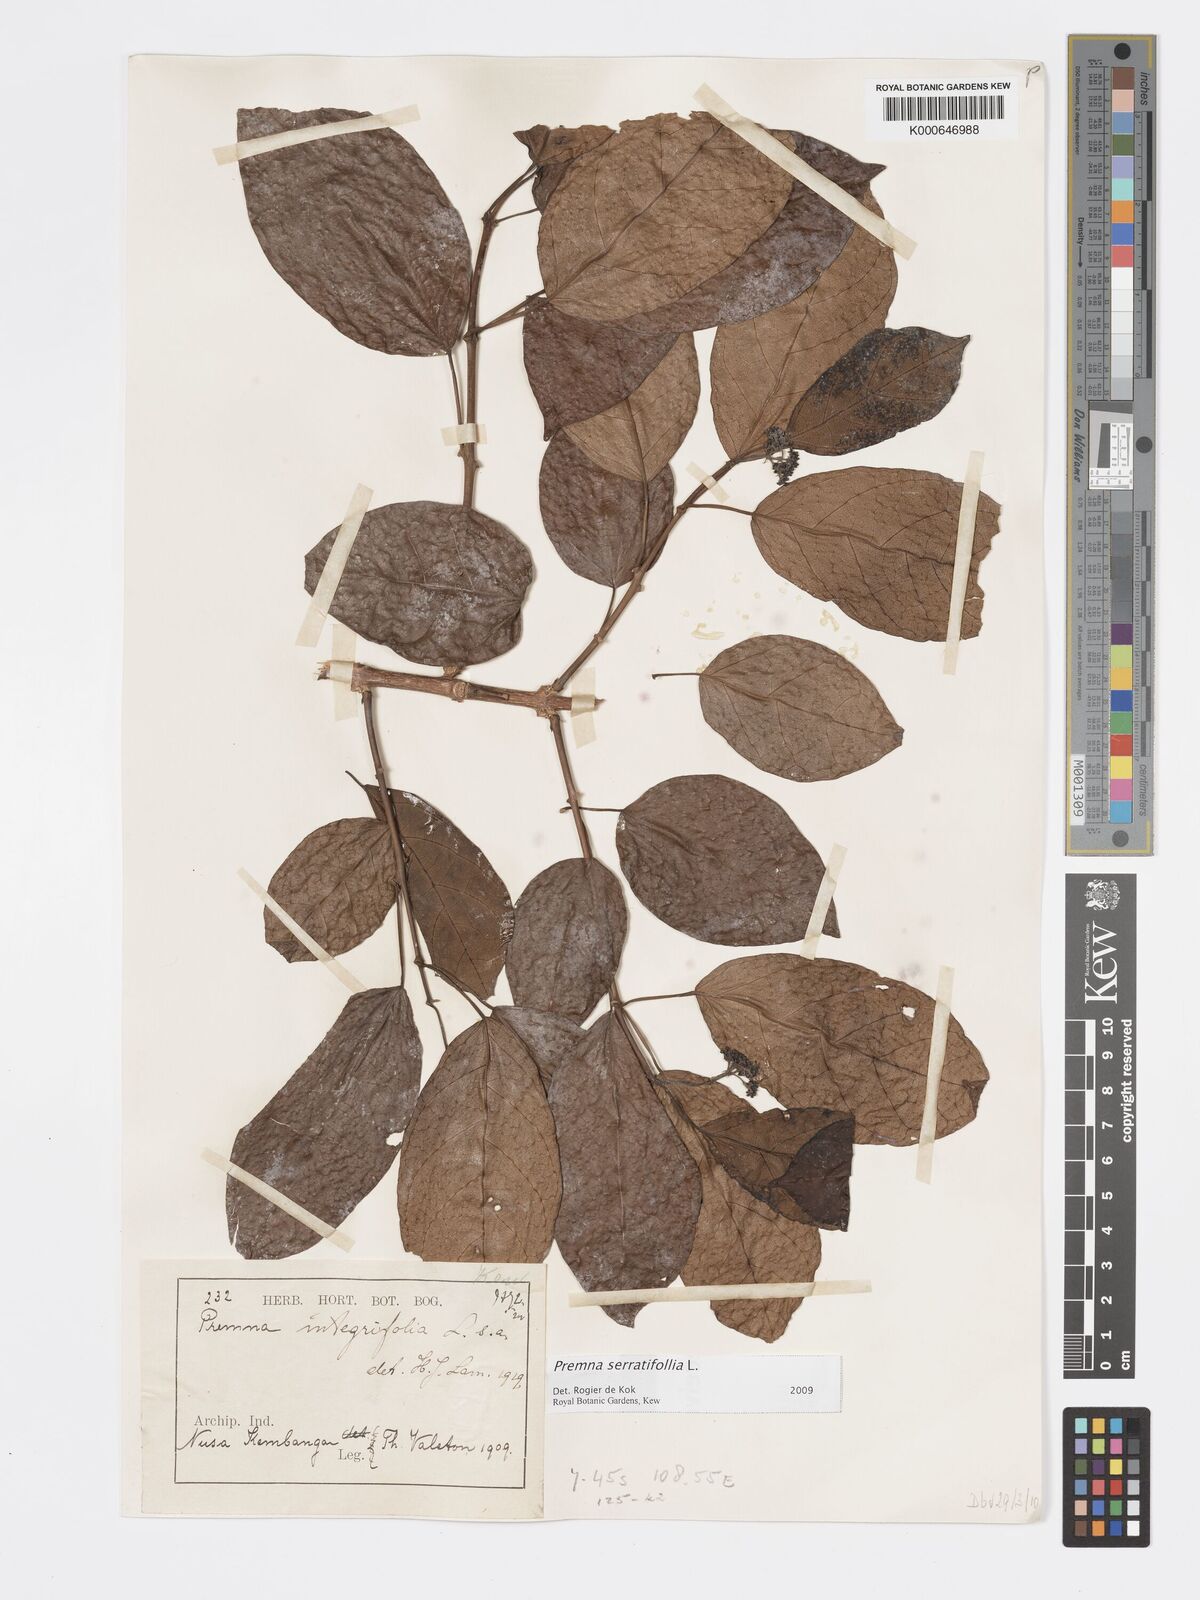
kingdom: Plantae
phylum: Tracheophyta
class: Magnoliopsida
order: Lamiales
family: Lamiaceae
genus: Premna
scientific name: Premna serratifolia
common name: Bastard guelder
